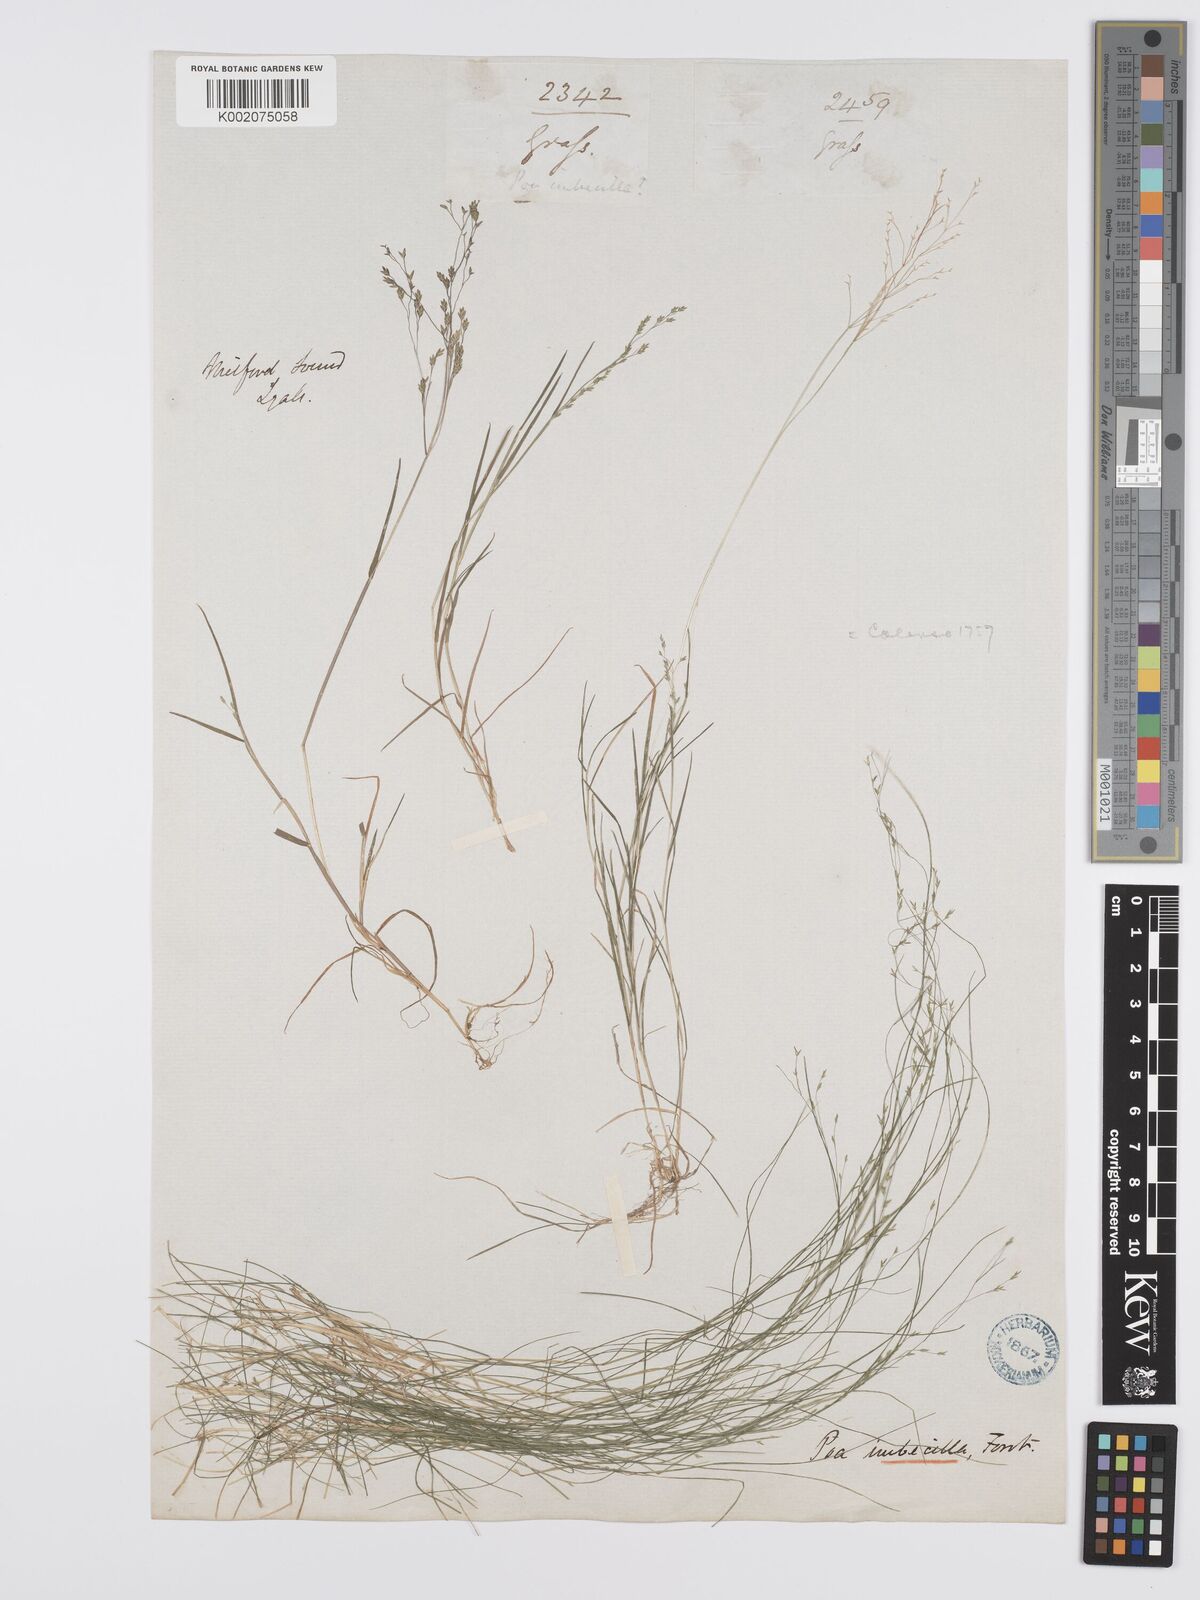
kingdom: Plantae
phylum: Tracheophyta
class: Liliopsida
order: Poales
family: Poaceae
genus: Poa
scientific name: Poa imbecilla
